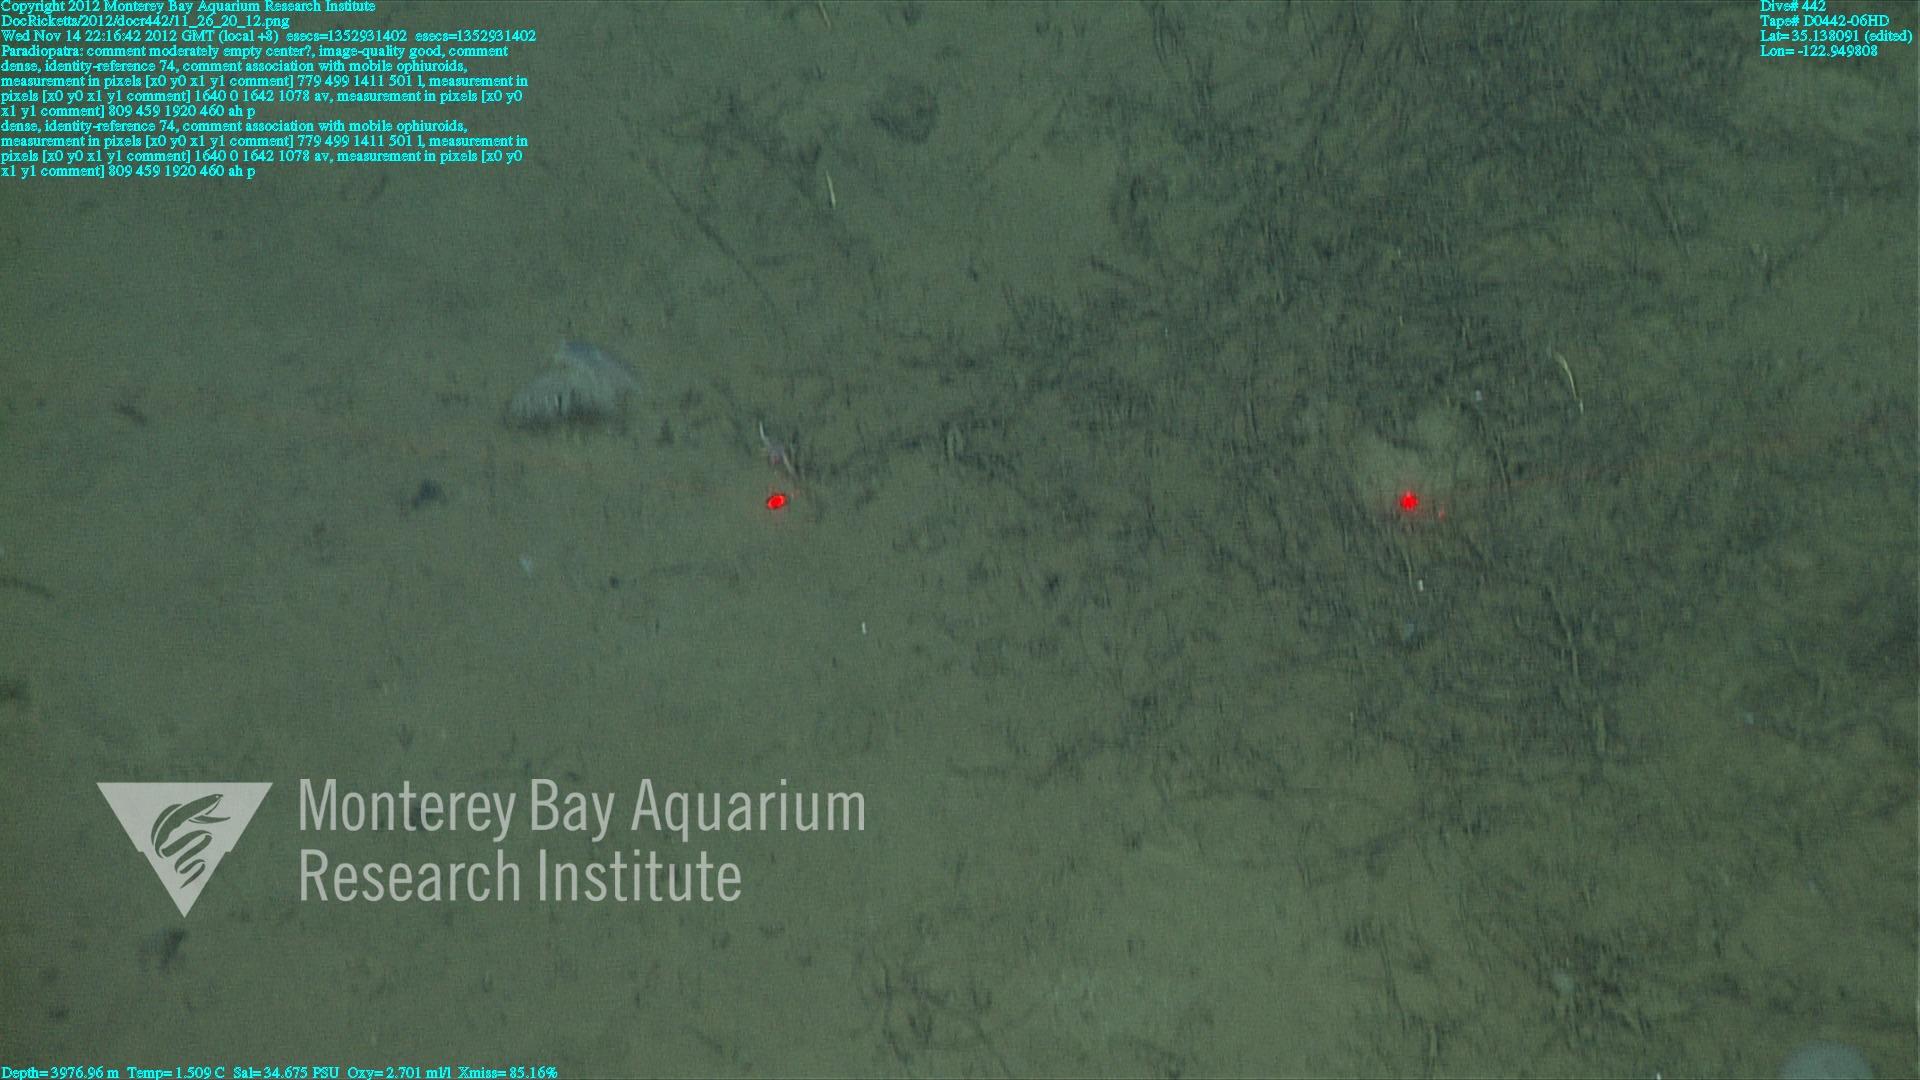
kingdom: Animalia
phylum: Porifera
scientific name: Porifera
